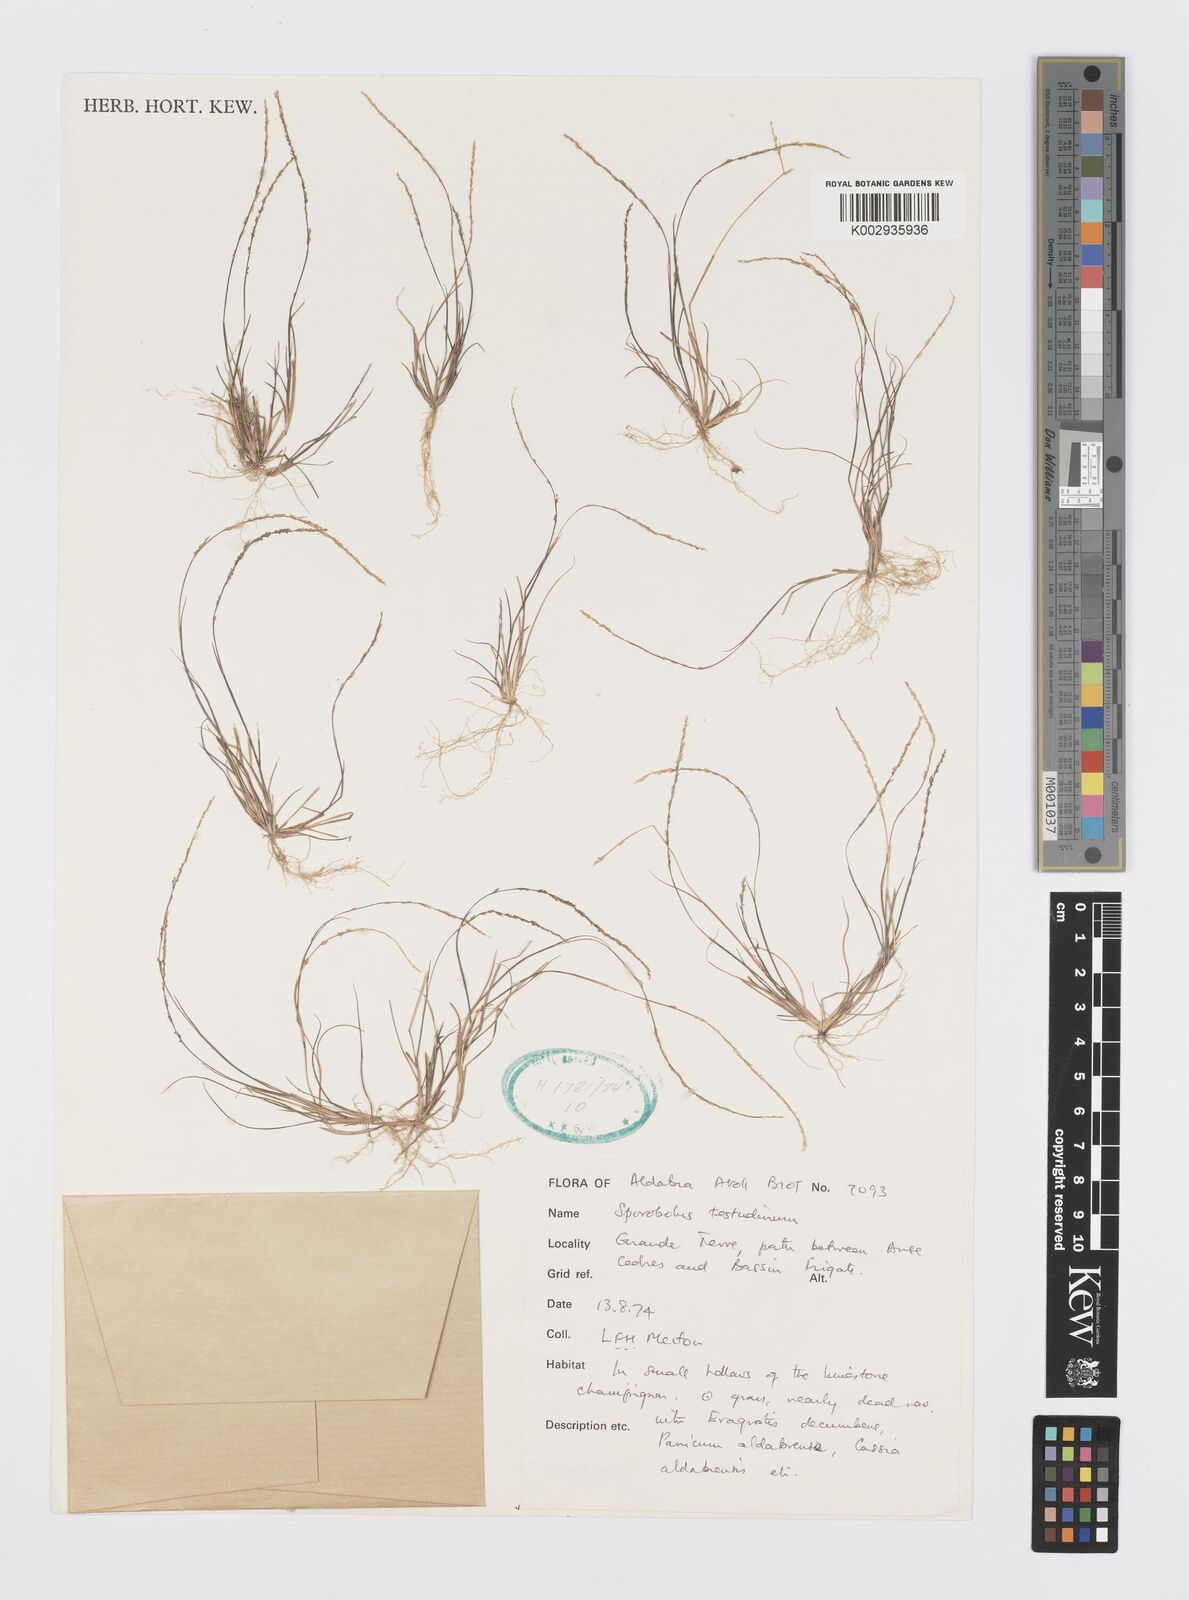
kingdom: Plantae
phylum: Tracheophyta
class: Liliopsida
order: Poales
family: Poaceae
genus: Sporobolus
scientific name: Sporobolus testudinum
